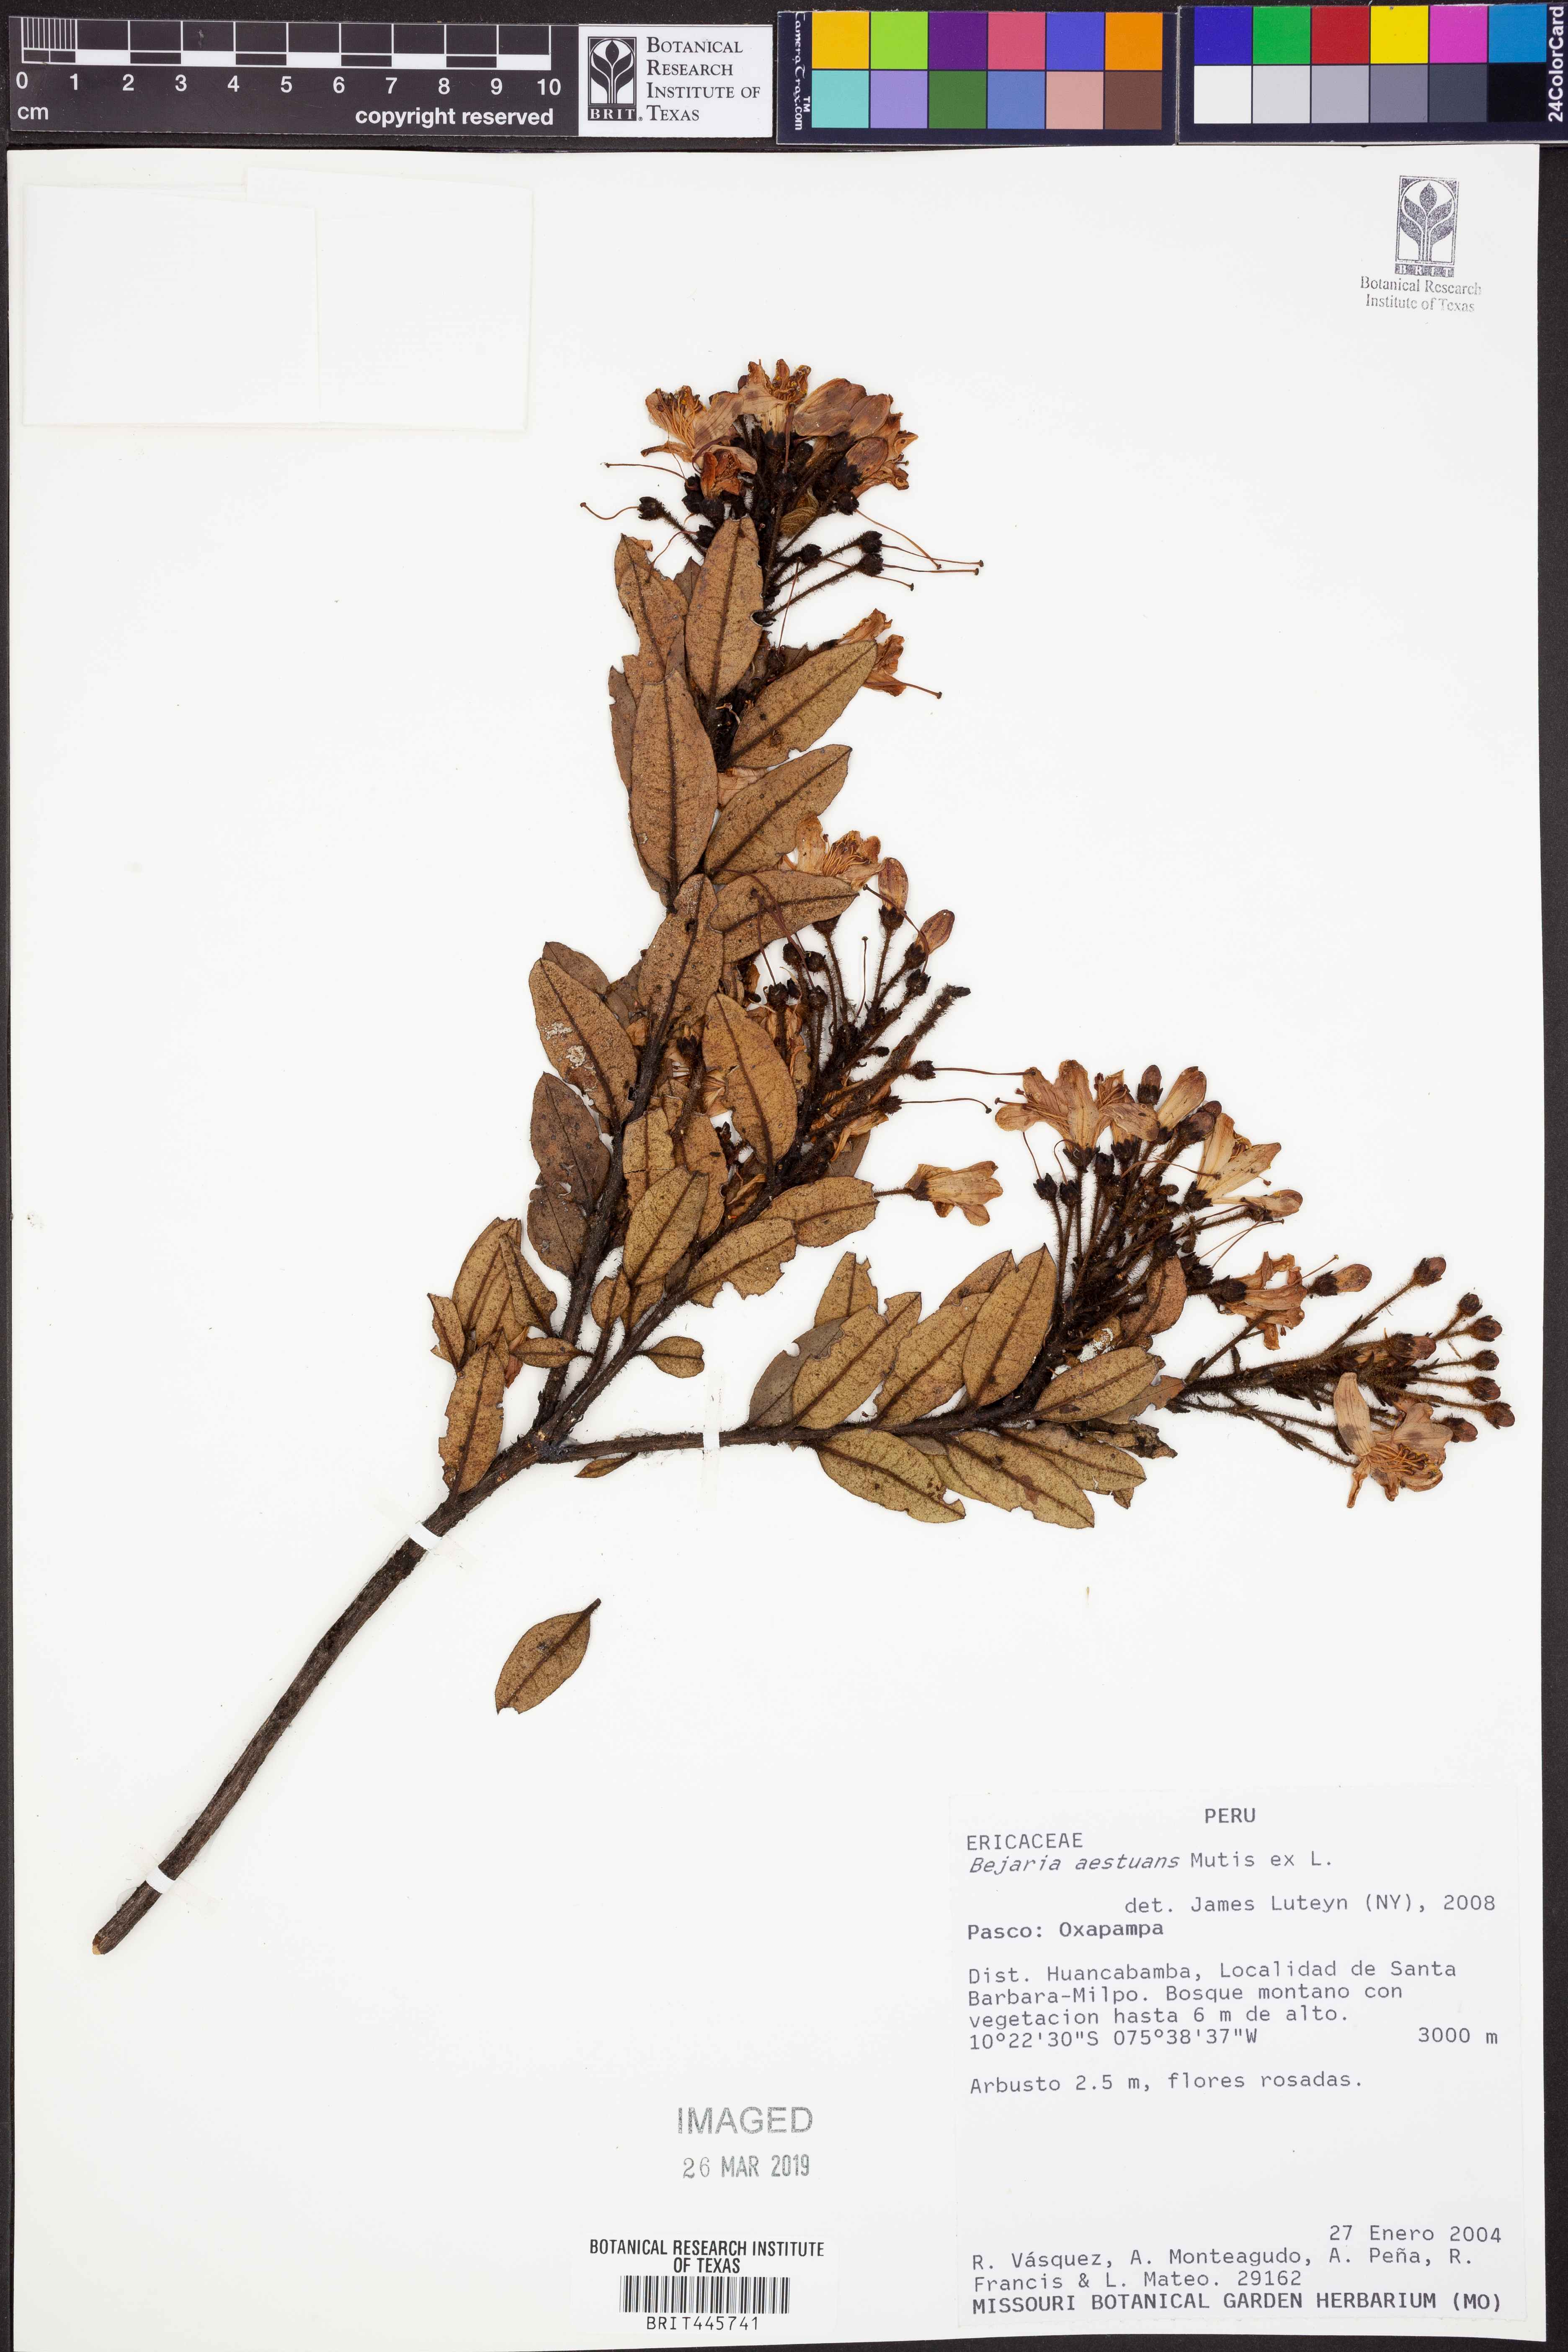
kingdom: Plantae
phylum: Tracheophyta
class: Magnoliopsida
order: Ericales
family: Ericaceae
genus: Bejaria
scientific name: Bejaria aestuans
